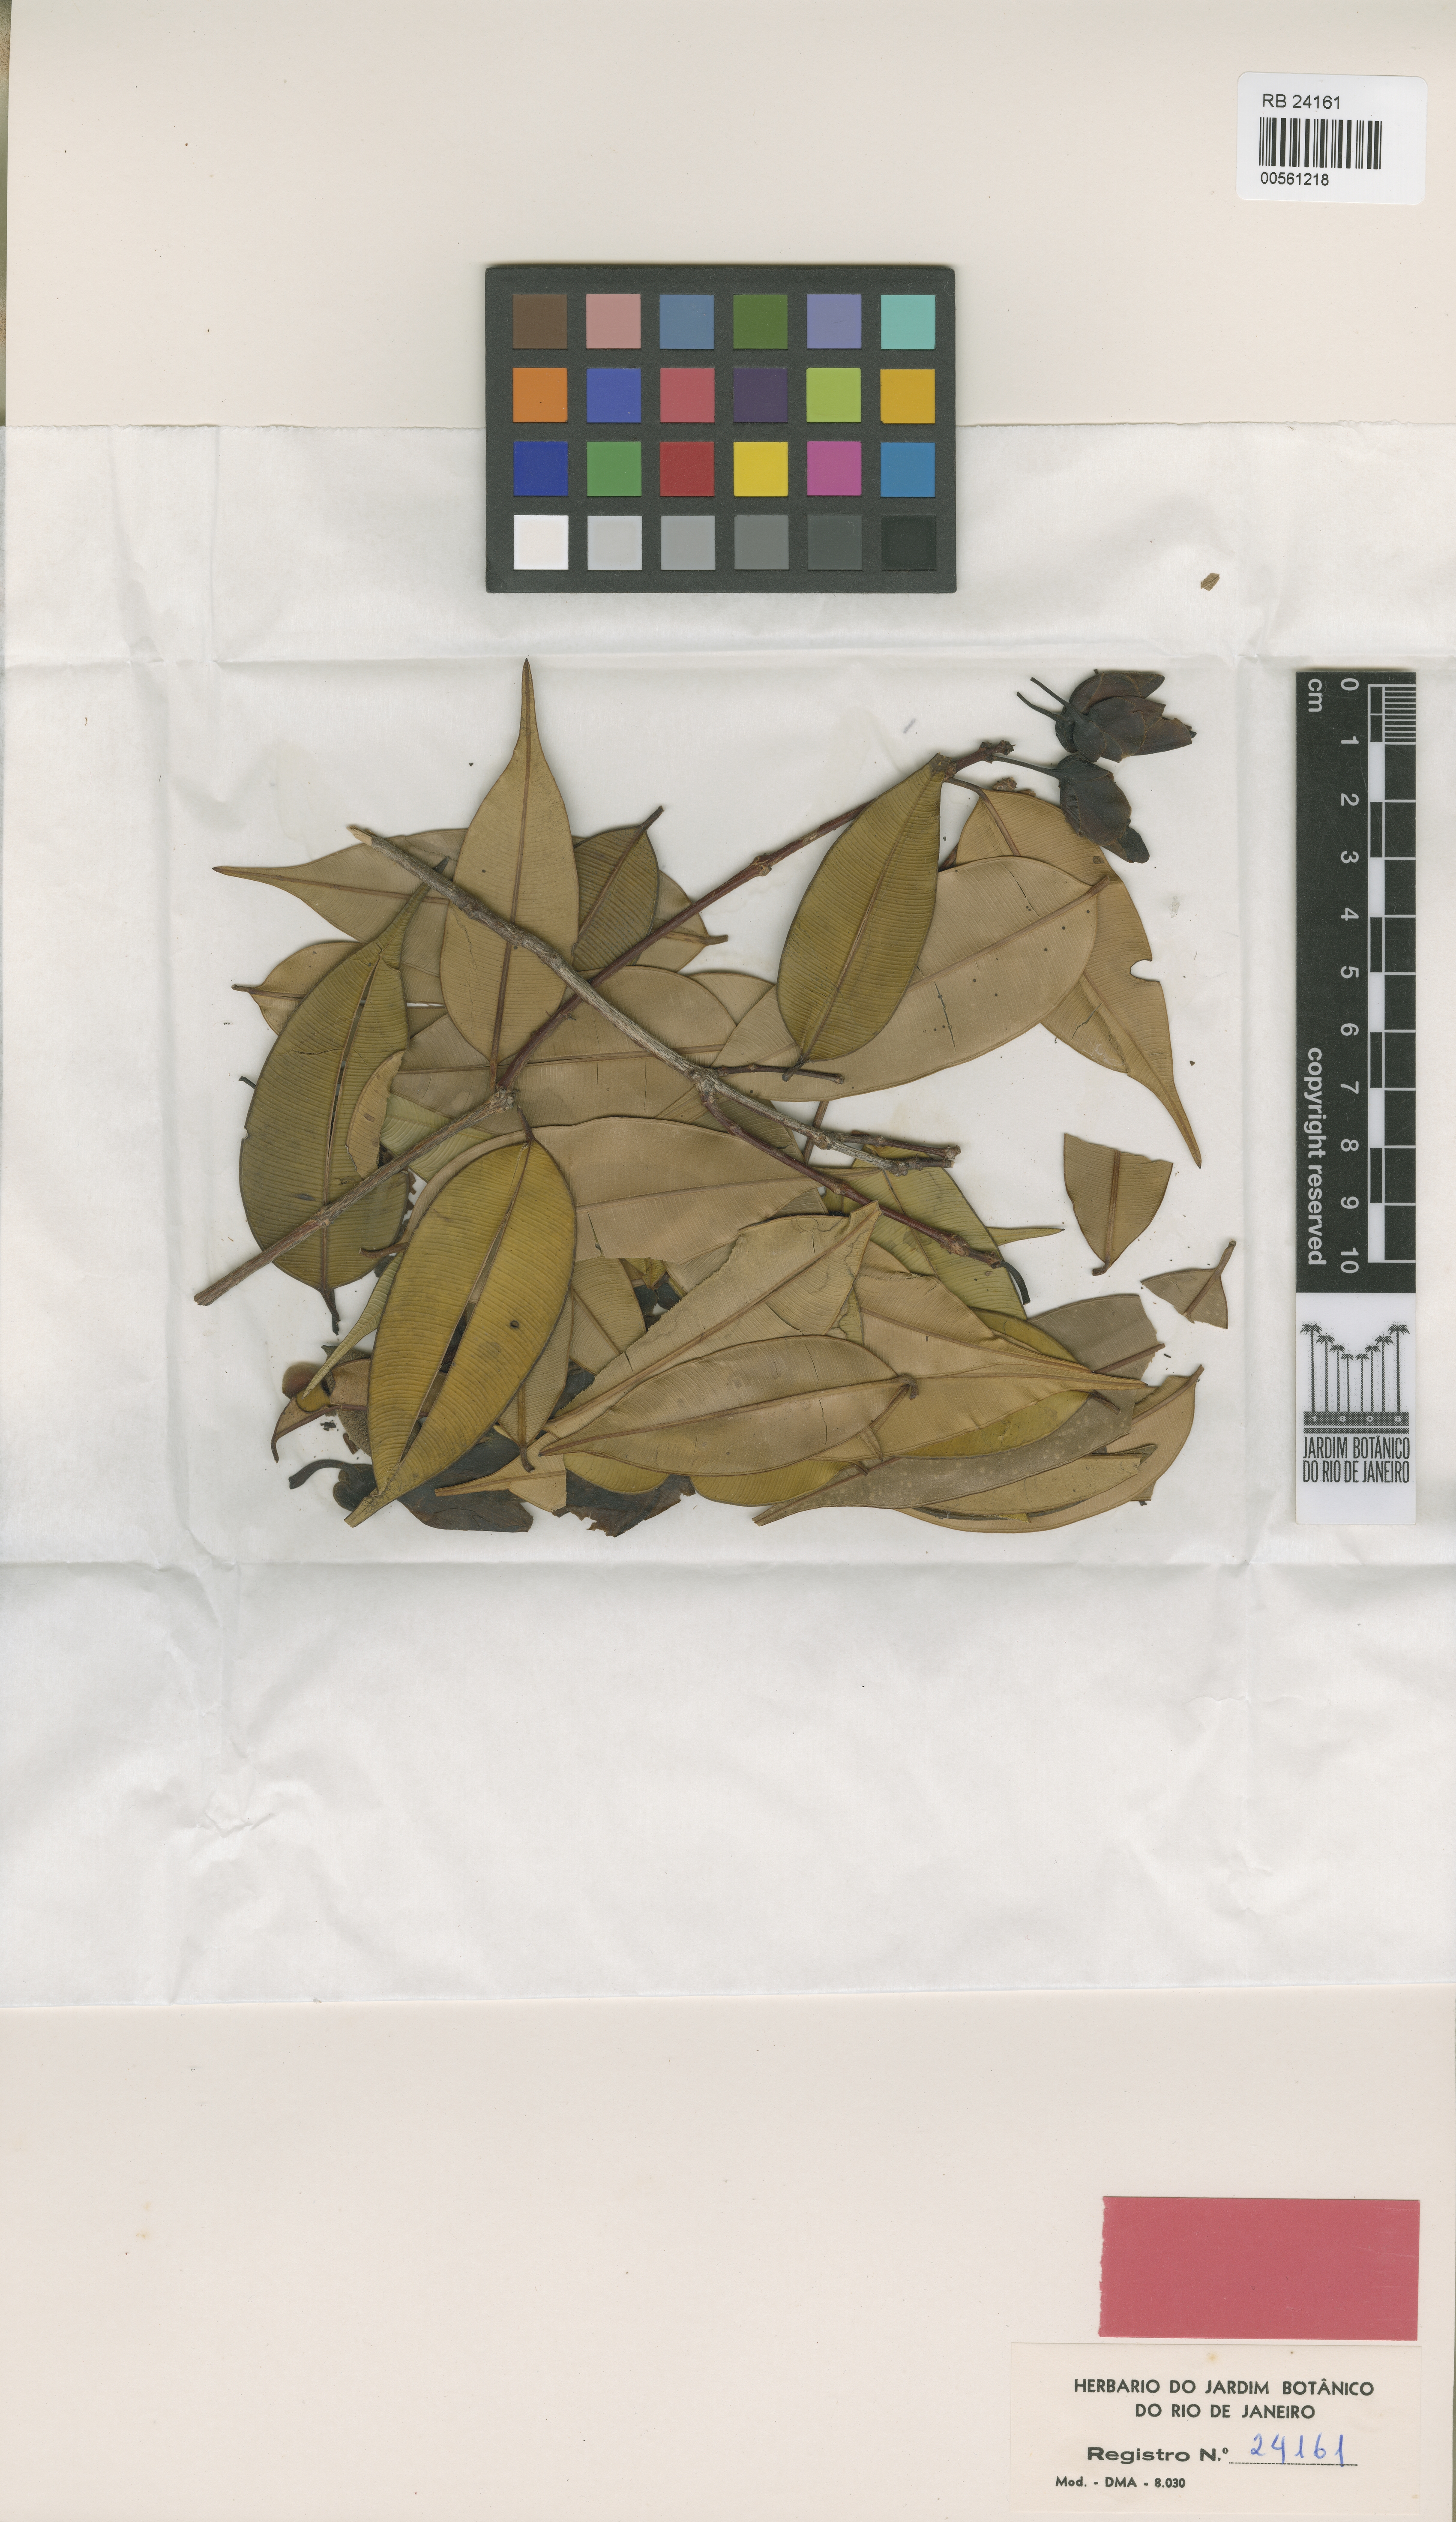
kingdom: Plantae
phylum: Tracheophyta
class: Magnoliopsida
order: Myrtales
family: Vochysiaceae
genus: Qualea
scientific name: Qualea suprema
